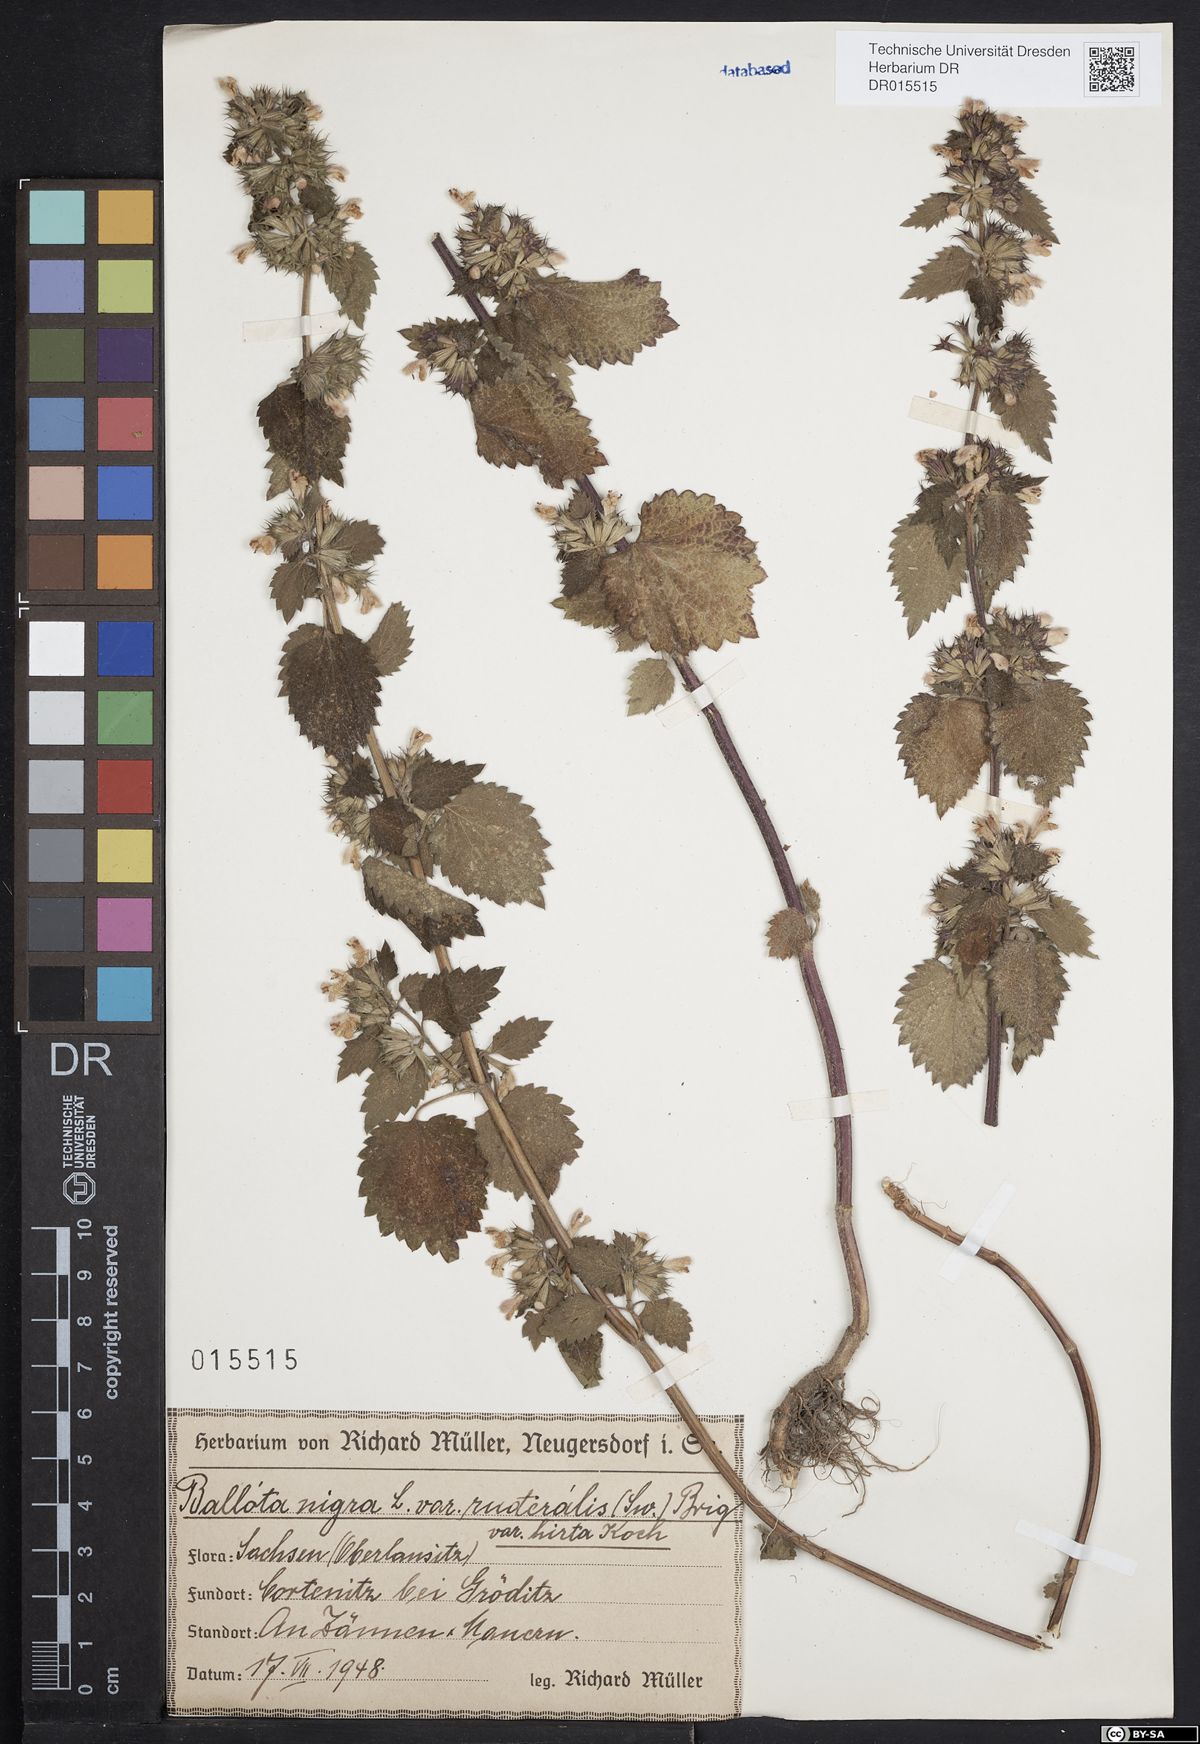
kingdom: Plantae
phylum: Tracheophyta
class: Magnoliopsida
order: Lamiales
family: Lamiaceae
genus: Ballota
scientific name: Ballota nigra
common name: Black horehound
